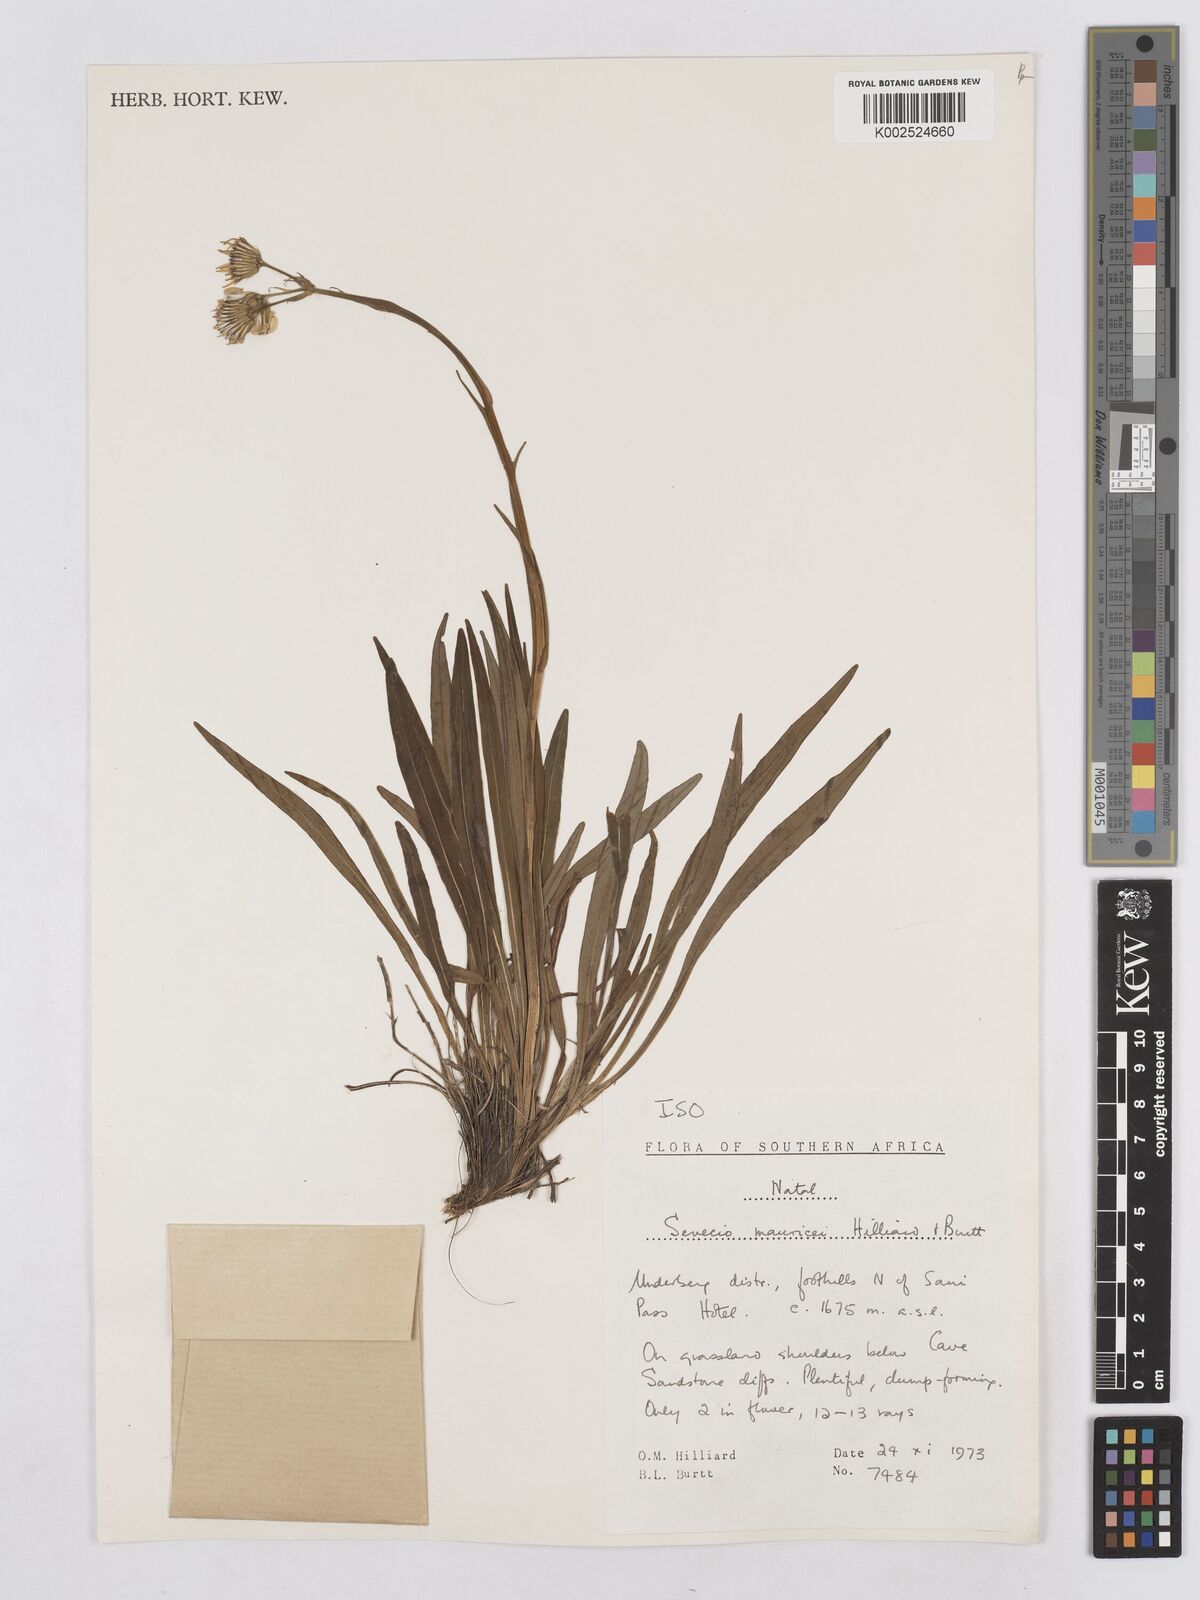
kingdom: Plantae
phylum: Tracheophyta
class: Magnoliopsida
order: Asterales
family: Asteraceae
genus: Senecio
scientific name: Senecio mauricei
